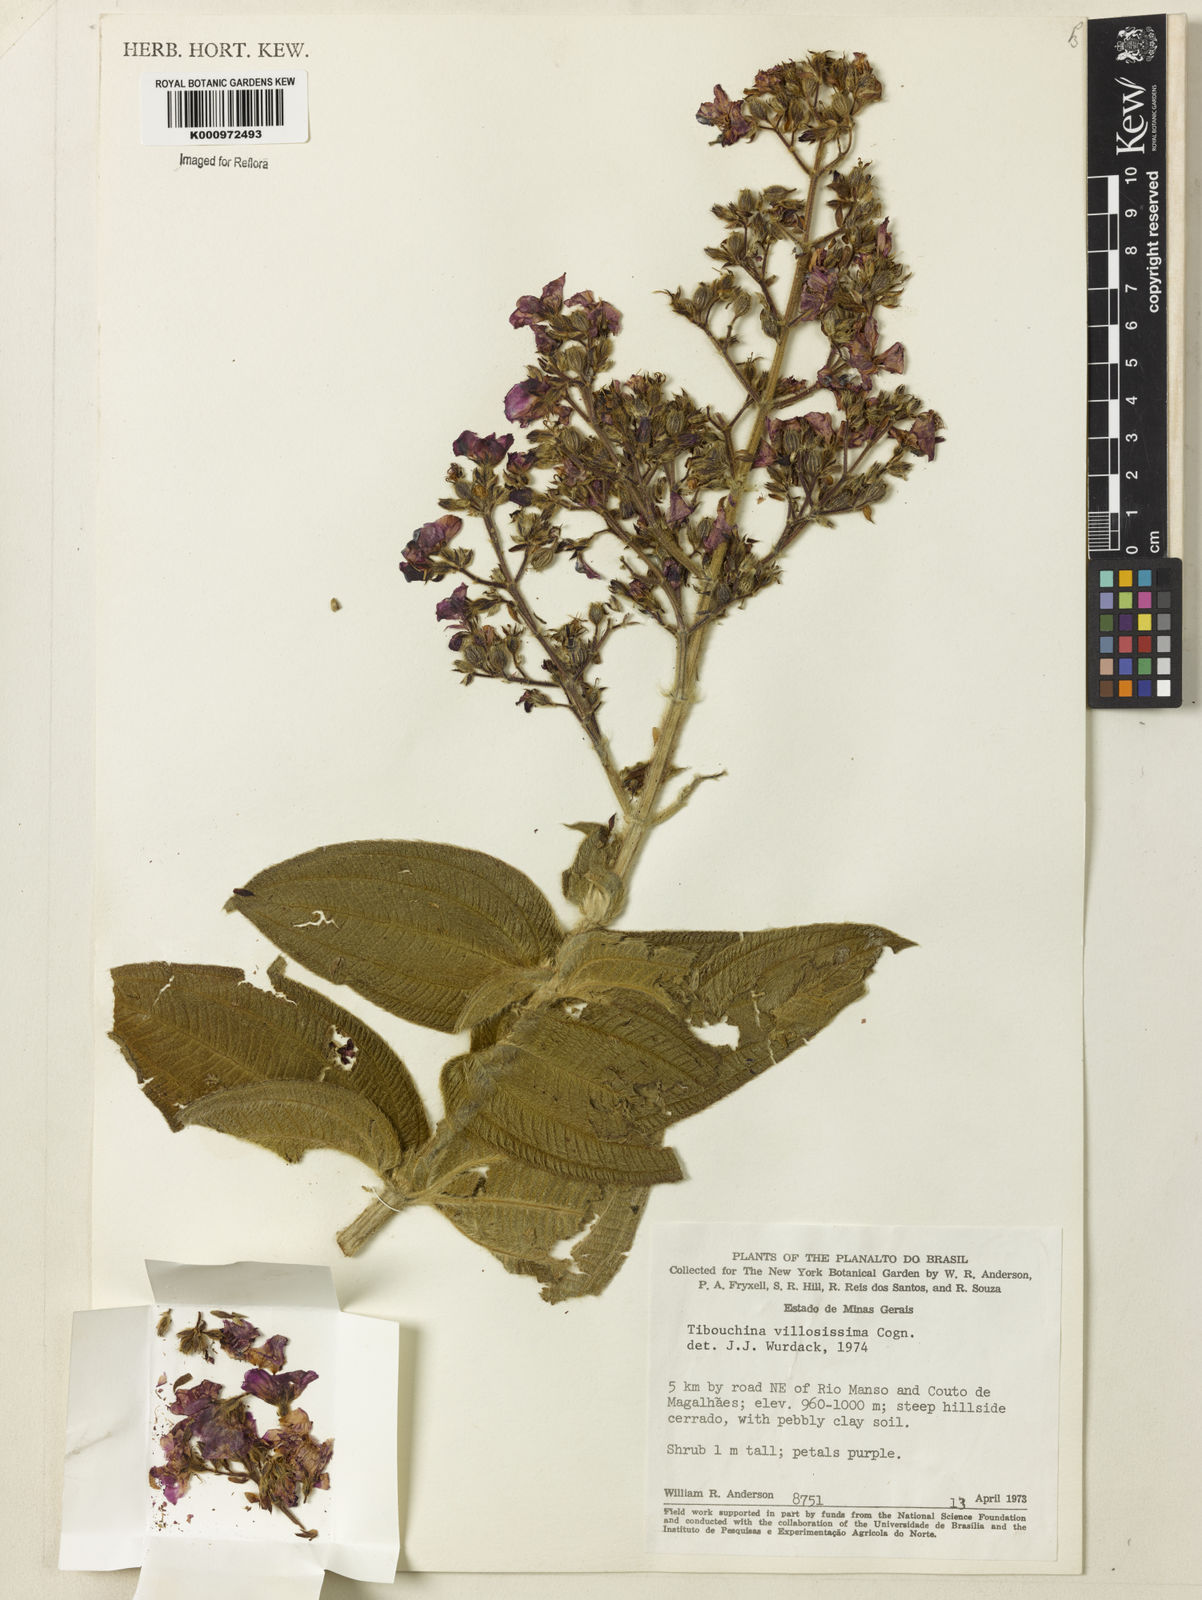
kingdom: Plantae
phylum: Tracheophyta
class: Magnoliopsida
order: Myrtales
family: Melastomataceae
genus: Pleroma
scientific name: Pleroma villosissimum
